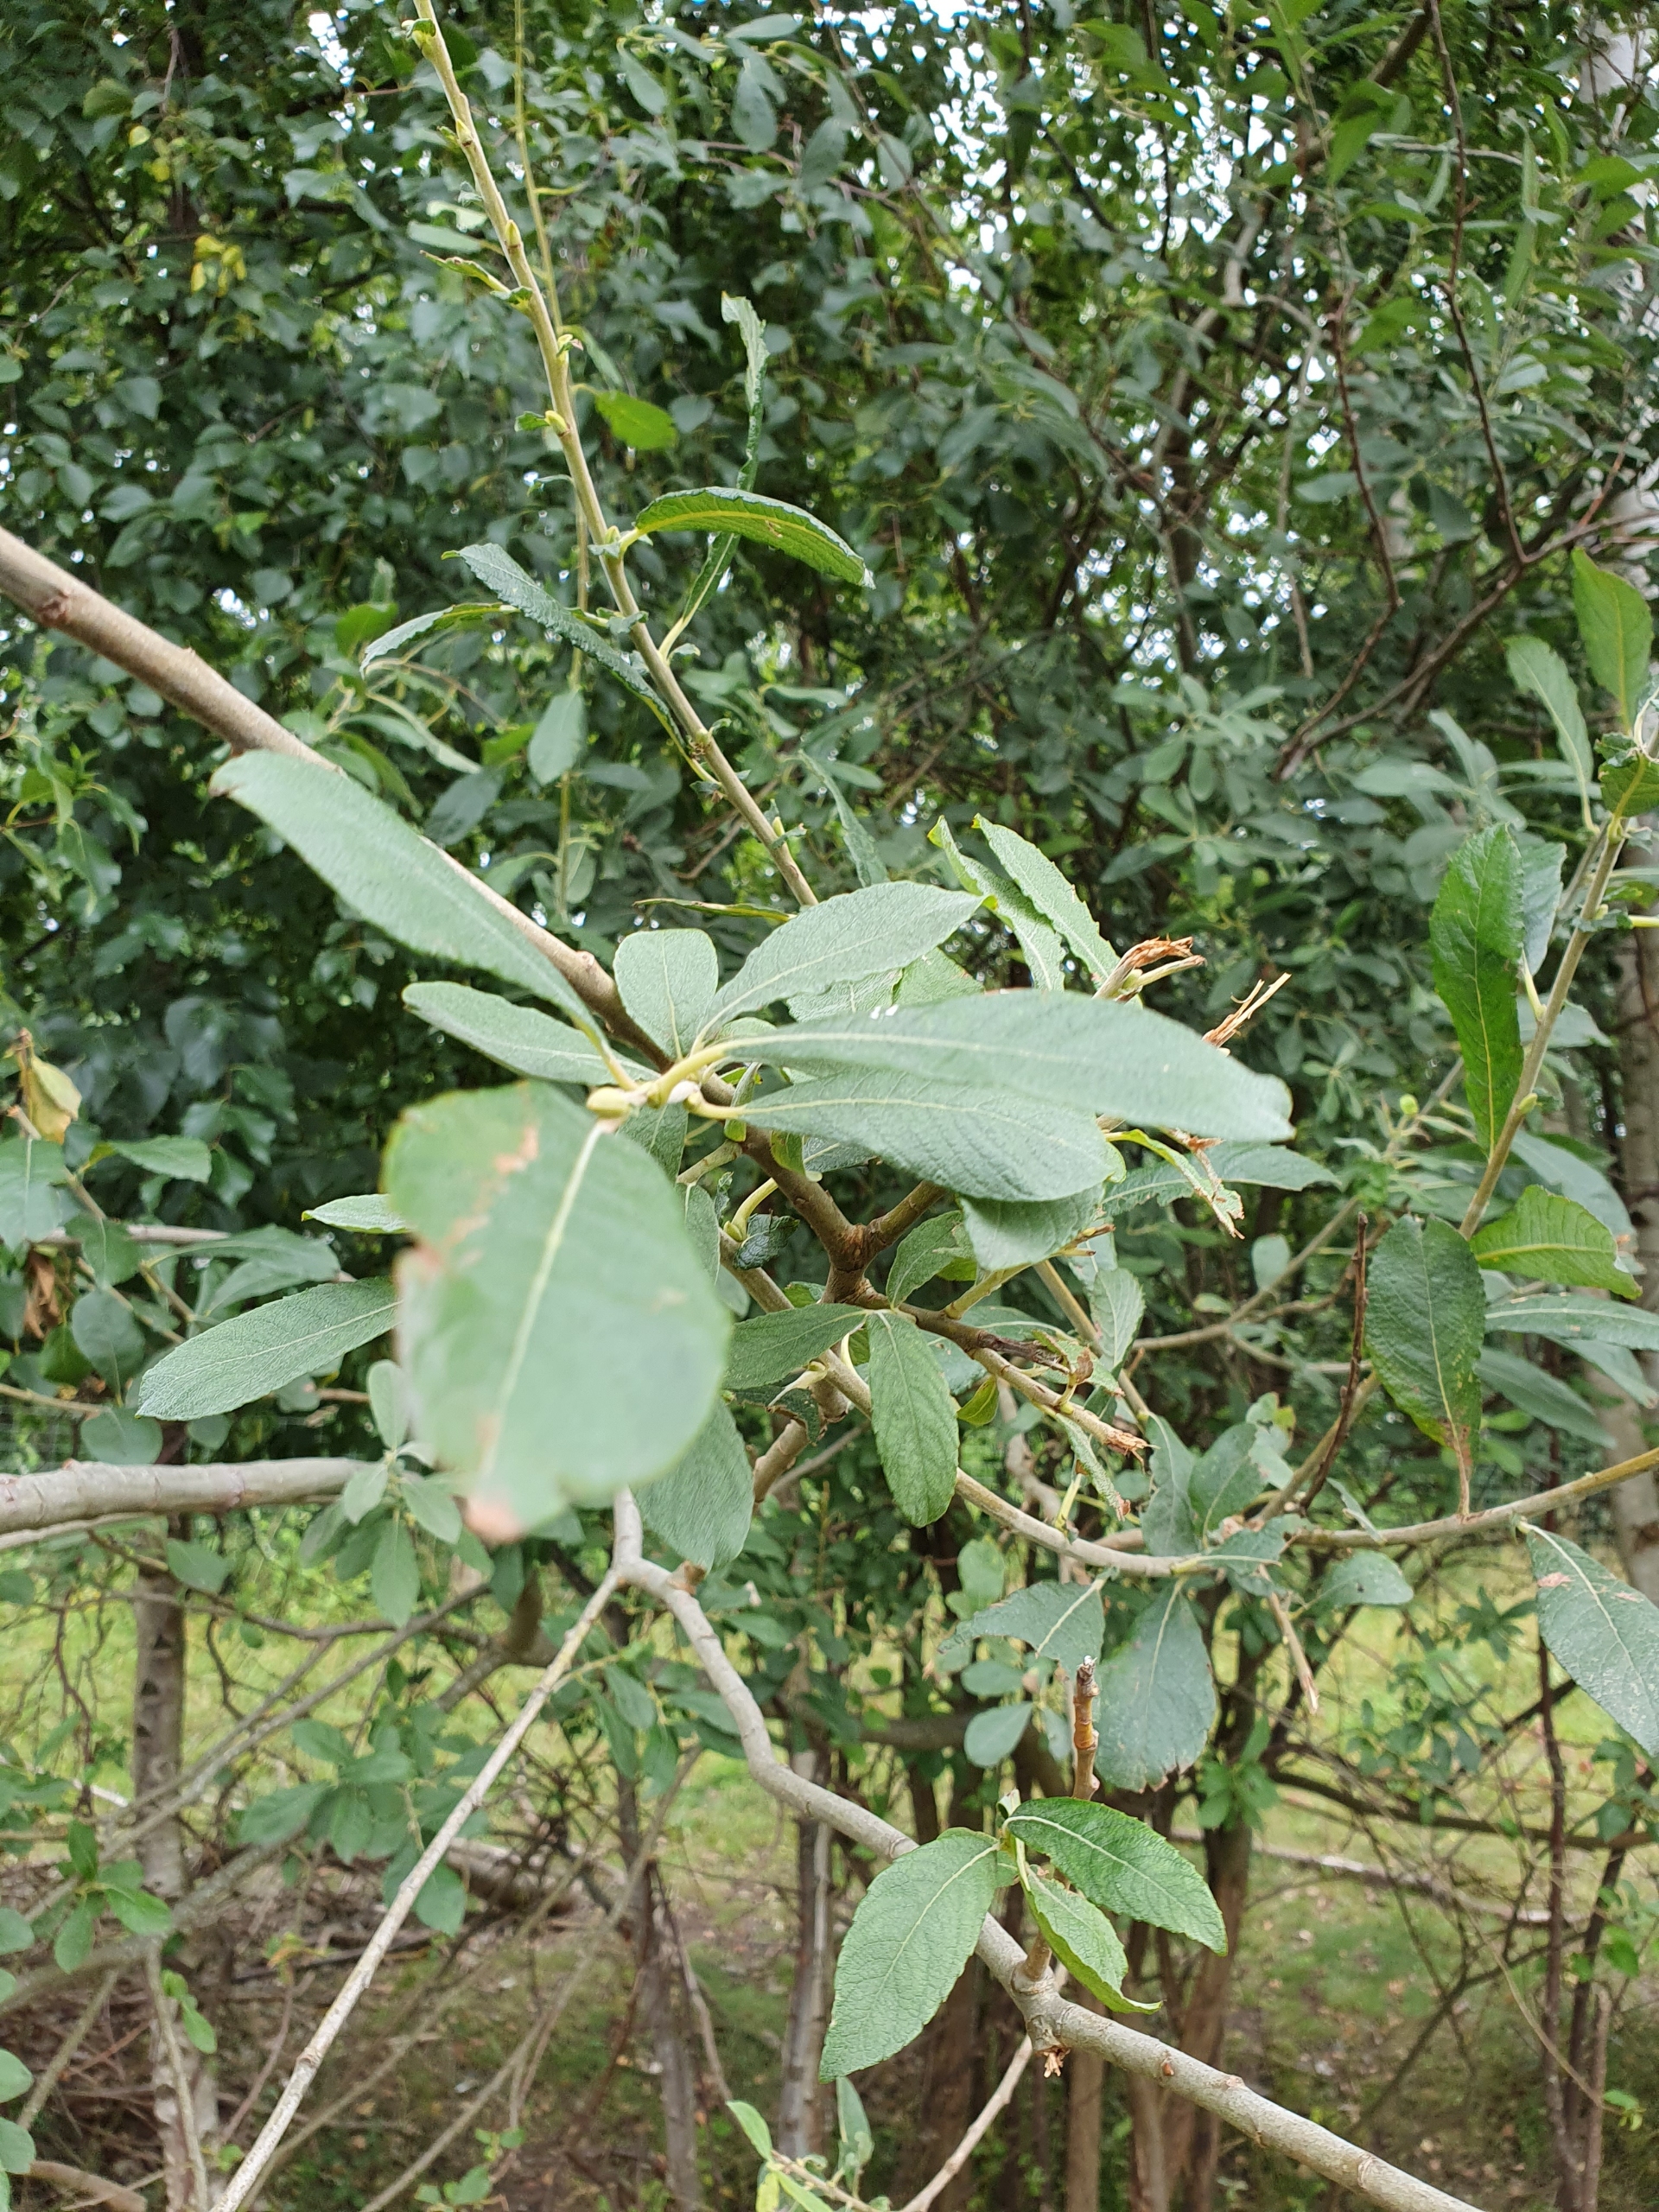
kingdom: Plantae
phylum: Tracheophyta
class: Magnoliopsida
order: Malpighiales
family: Salicaceae
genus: Salix
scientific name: Salix cinerea
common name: Grå-pil
